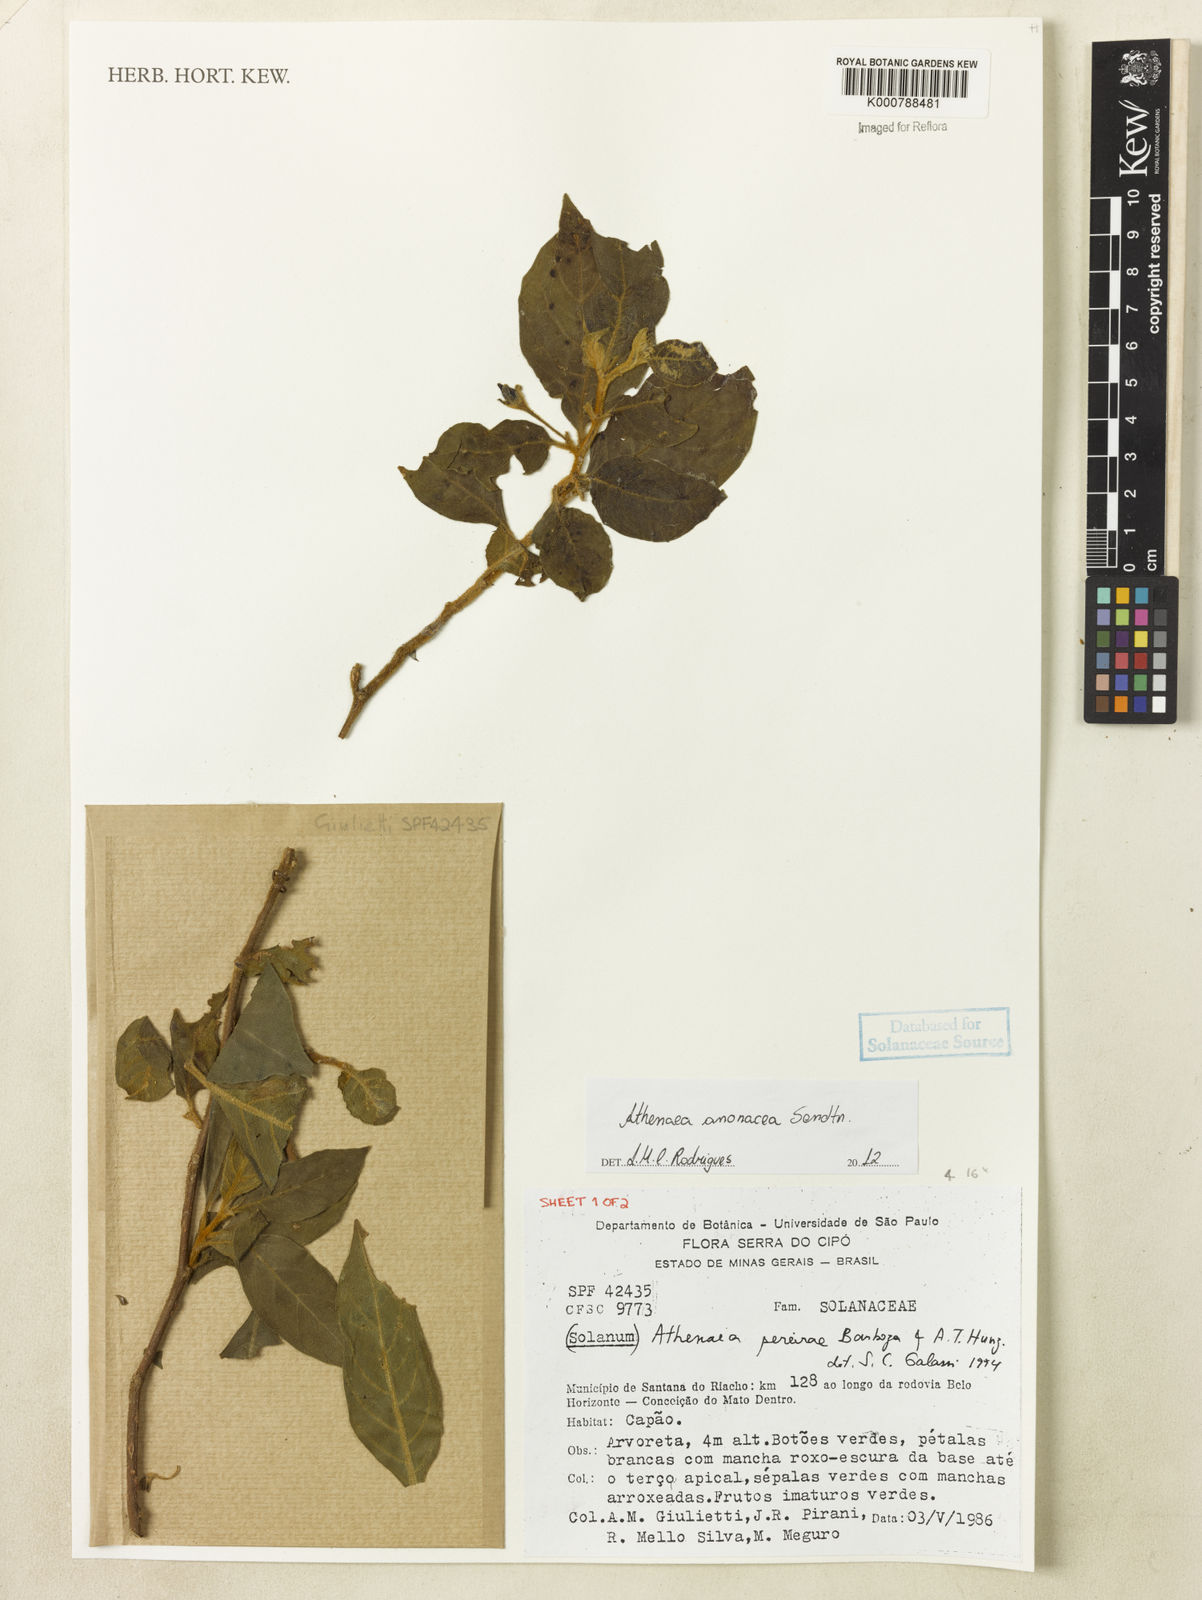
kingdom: Plantae
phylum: Tracheophyta
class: Magnoliopsida
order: Solanales
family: Solanaceae
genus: Athenaea
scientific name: Athenaea anonacea
